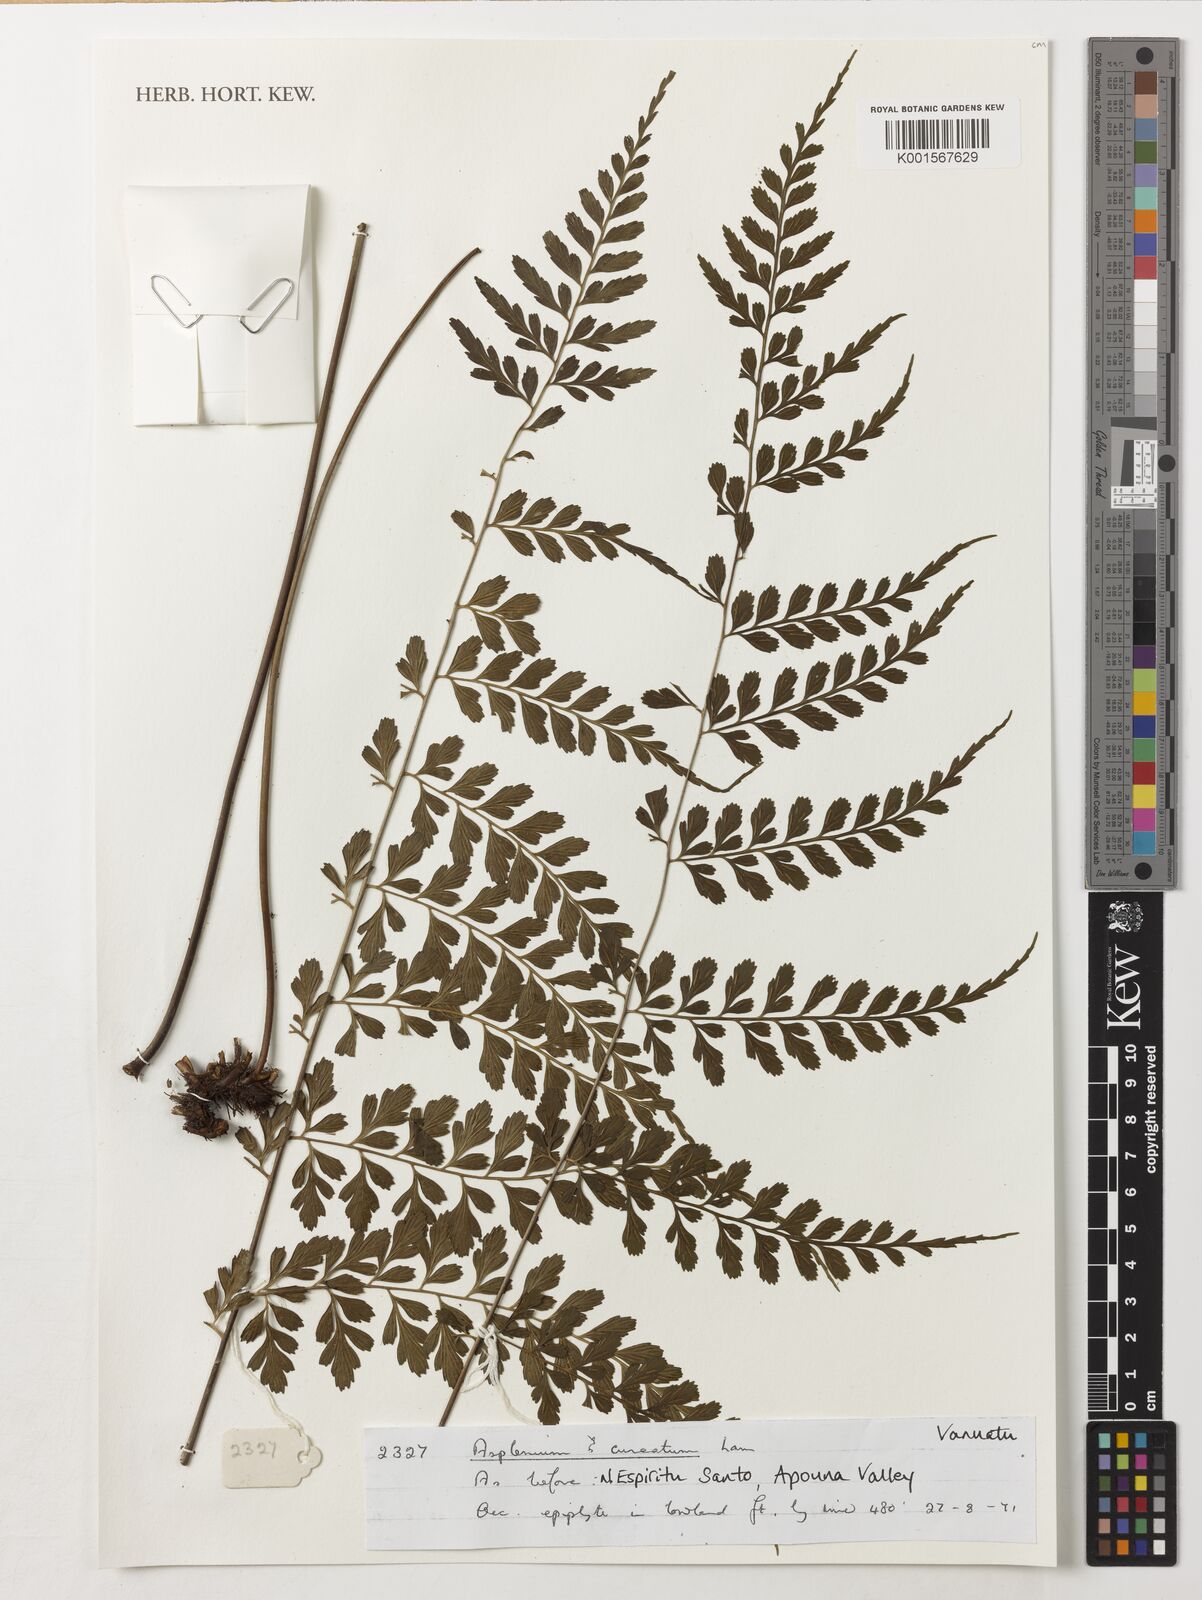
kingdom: Plantae
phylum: Tracheophyta
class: Polypodiopsida
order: Polypodiales
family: Aspleniaceae
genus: Asplenium
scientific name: Asplenium cuneatum
